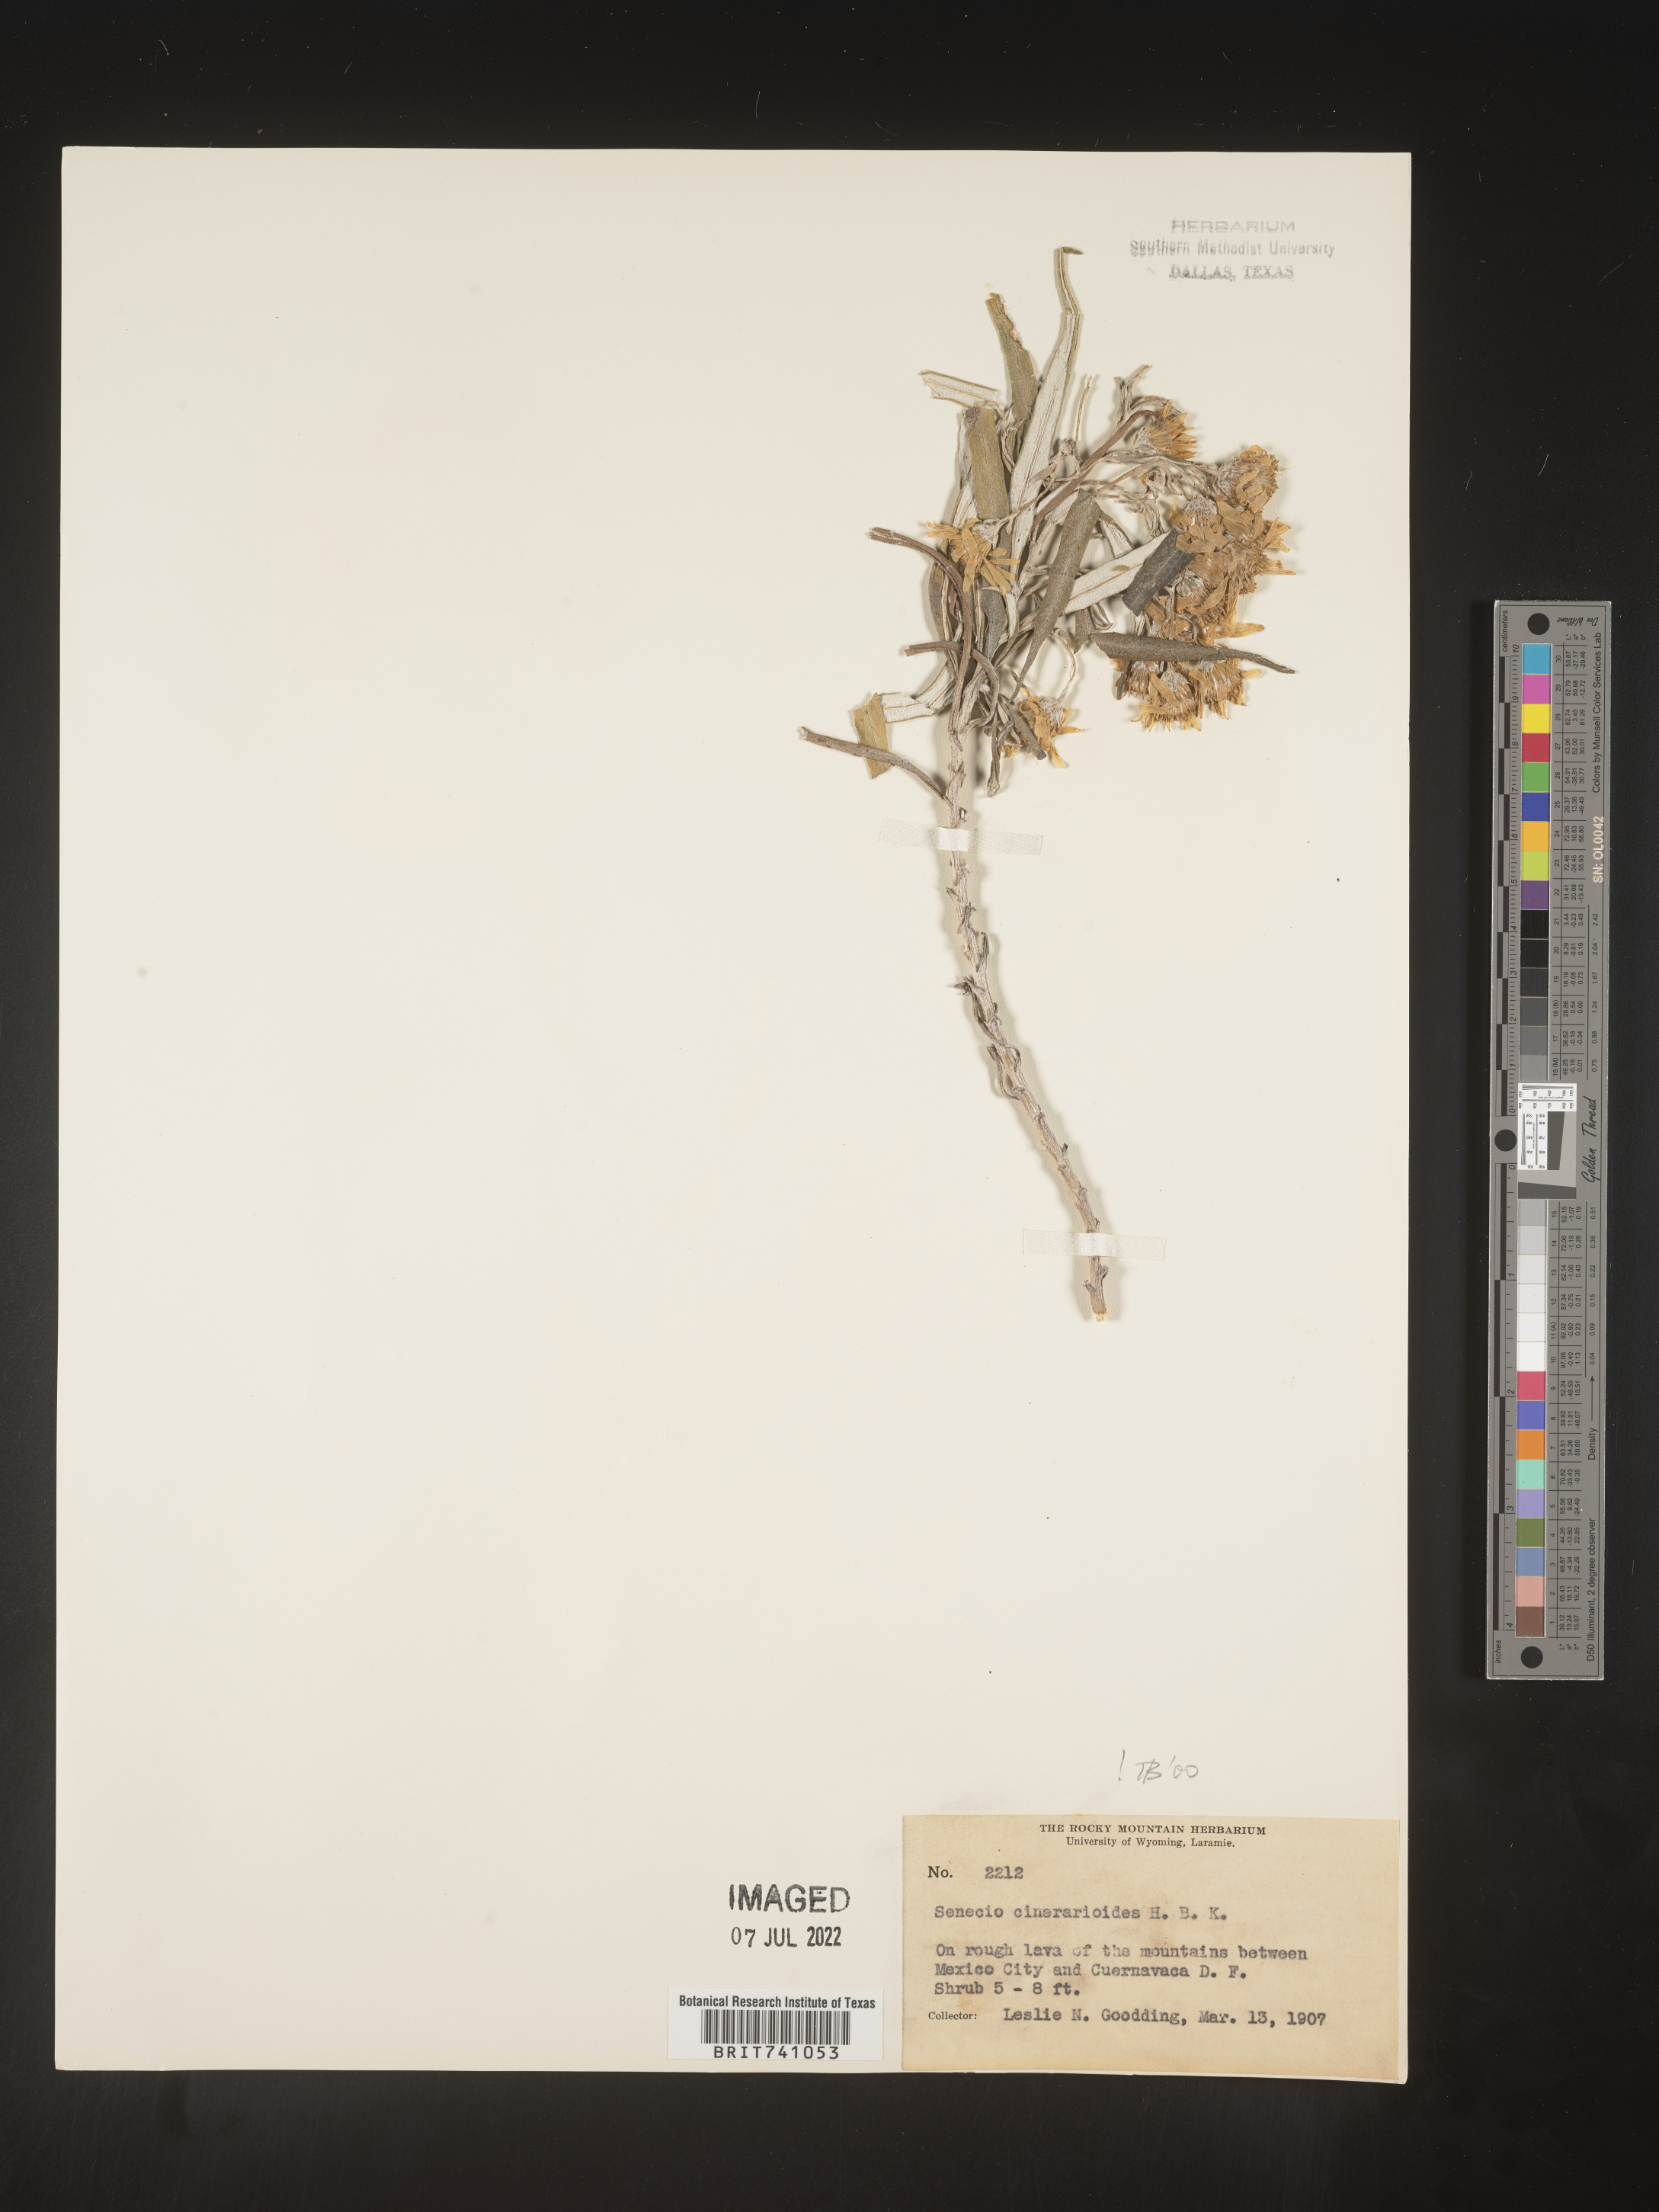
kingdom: Plantae
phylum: Tracheophyta
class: Magnoliopsida
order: Asterales
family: Asteraceae
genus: Senecio
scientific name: Senecio
